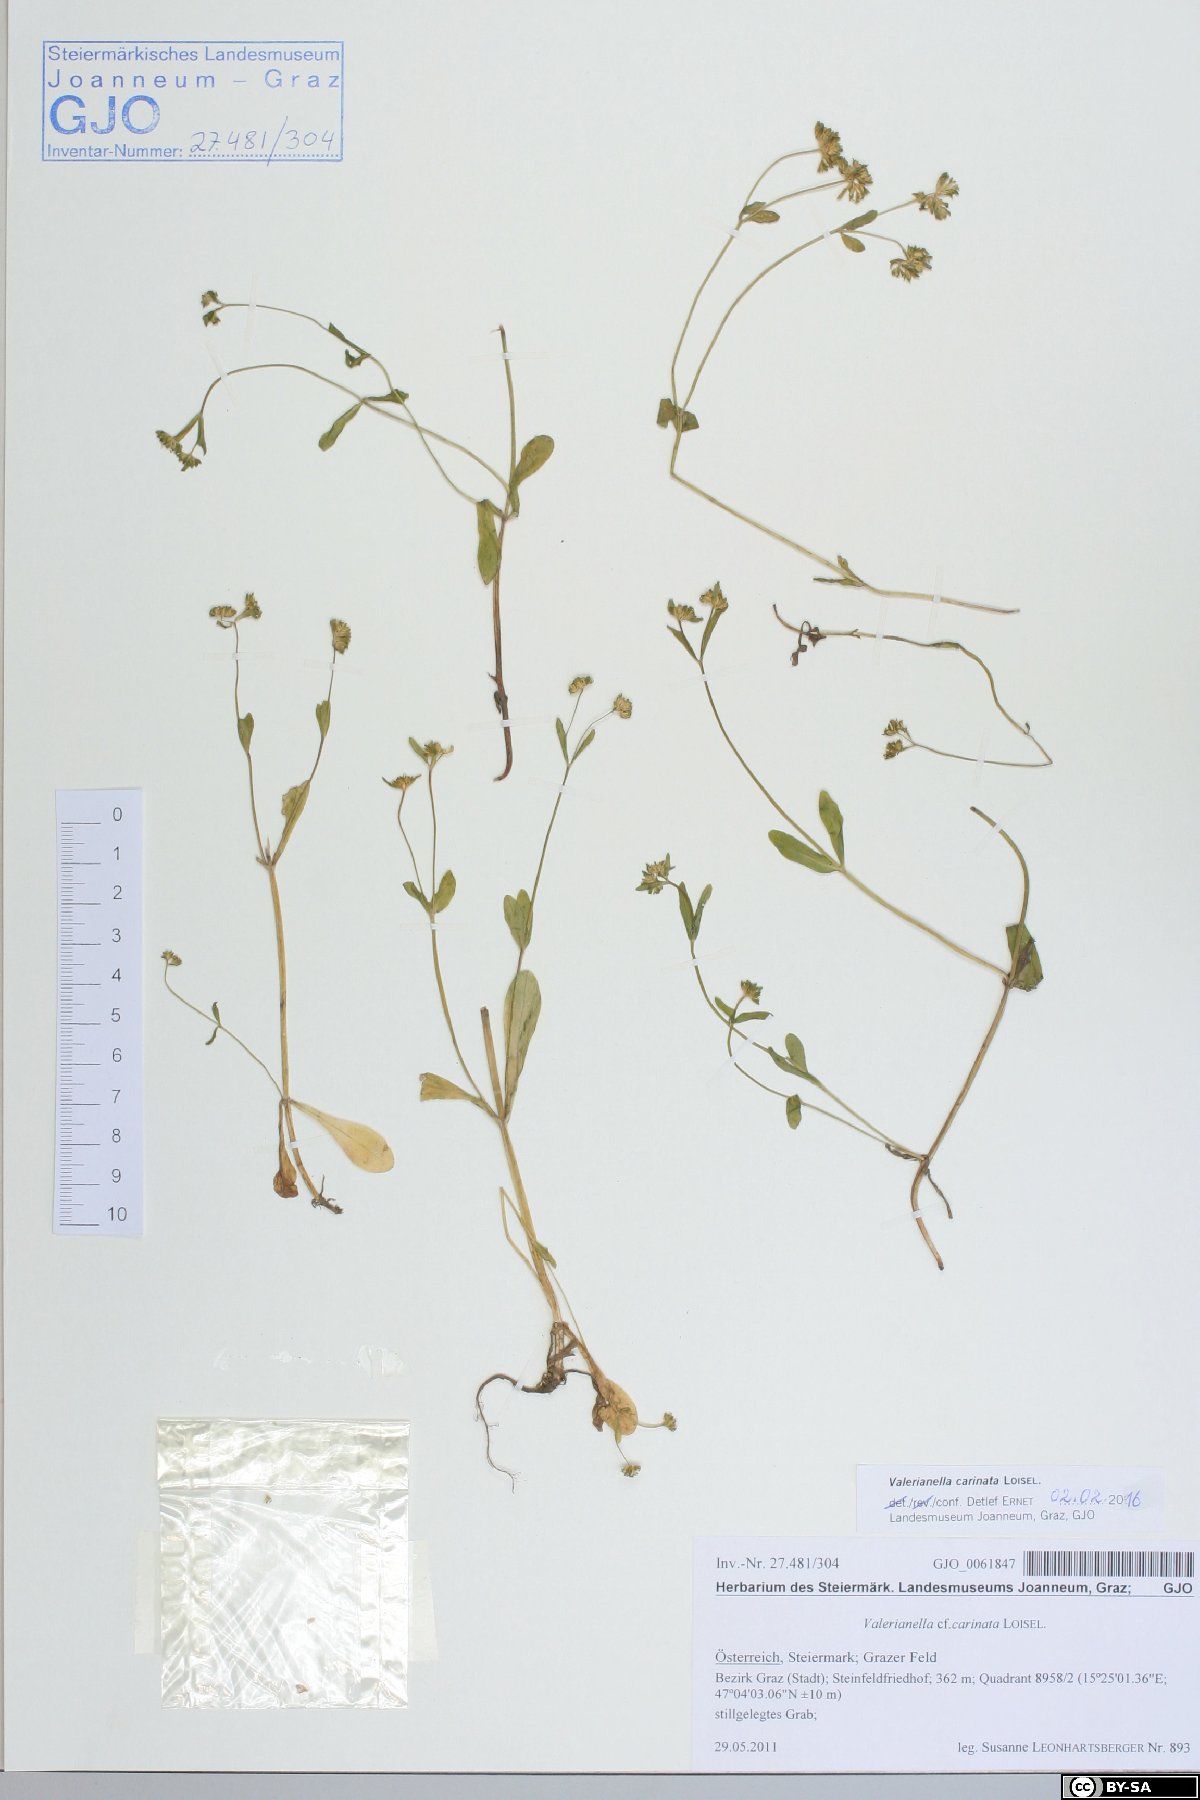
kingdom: Plantae
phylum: Tracheophyta
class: Magnoliopsida
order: Dipsacales
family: Caprifoliaceae
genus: Valerianella
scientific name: Valerianella carinata
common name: Keeled-fruited cornsalad
